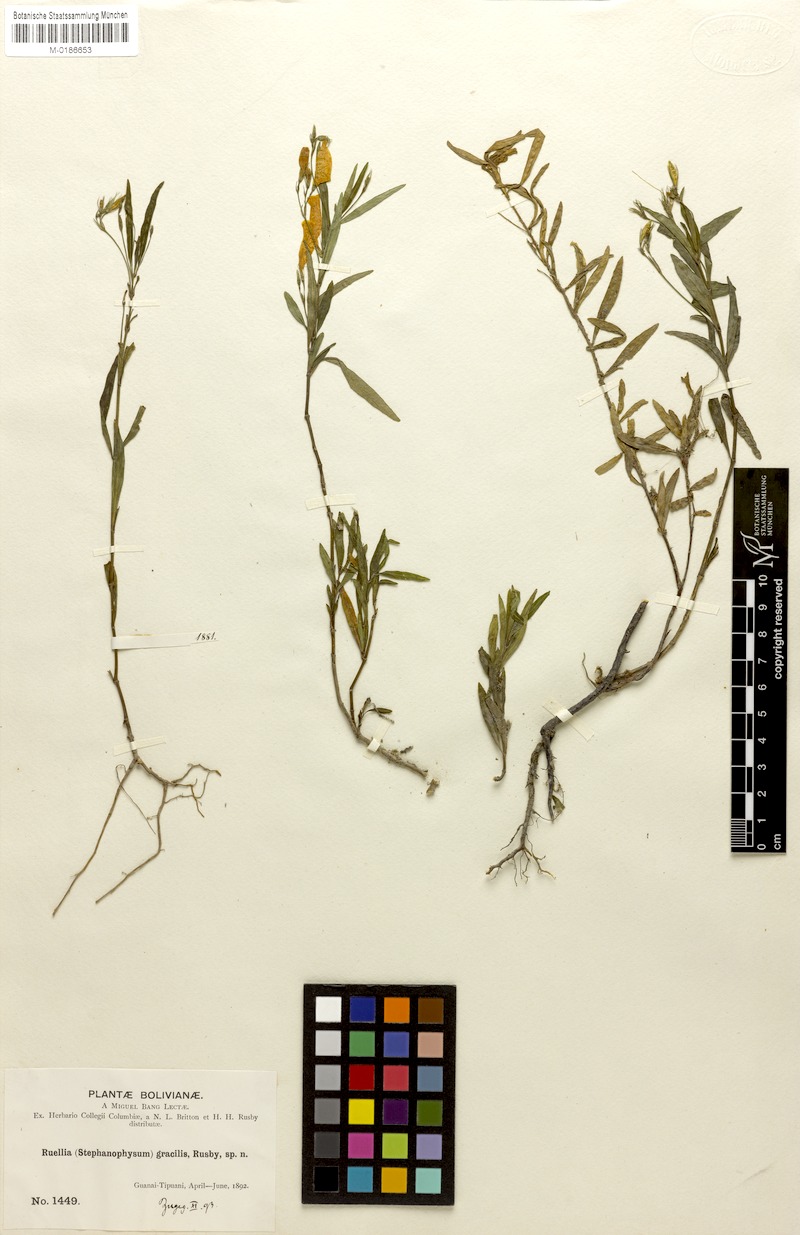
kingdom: Plantae
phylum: Tracheophyta
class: Magnoliopsida
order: Lamiales
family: Acanthaceae
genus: Ruellia
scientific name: Ruellia gracilis
